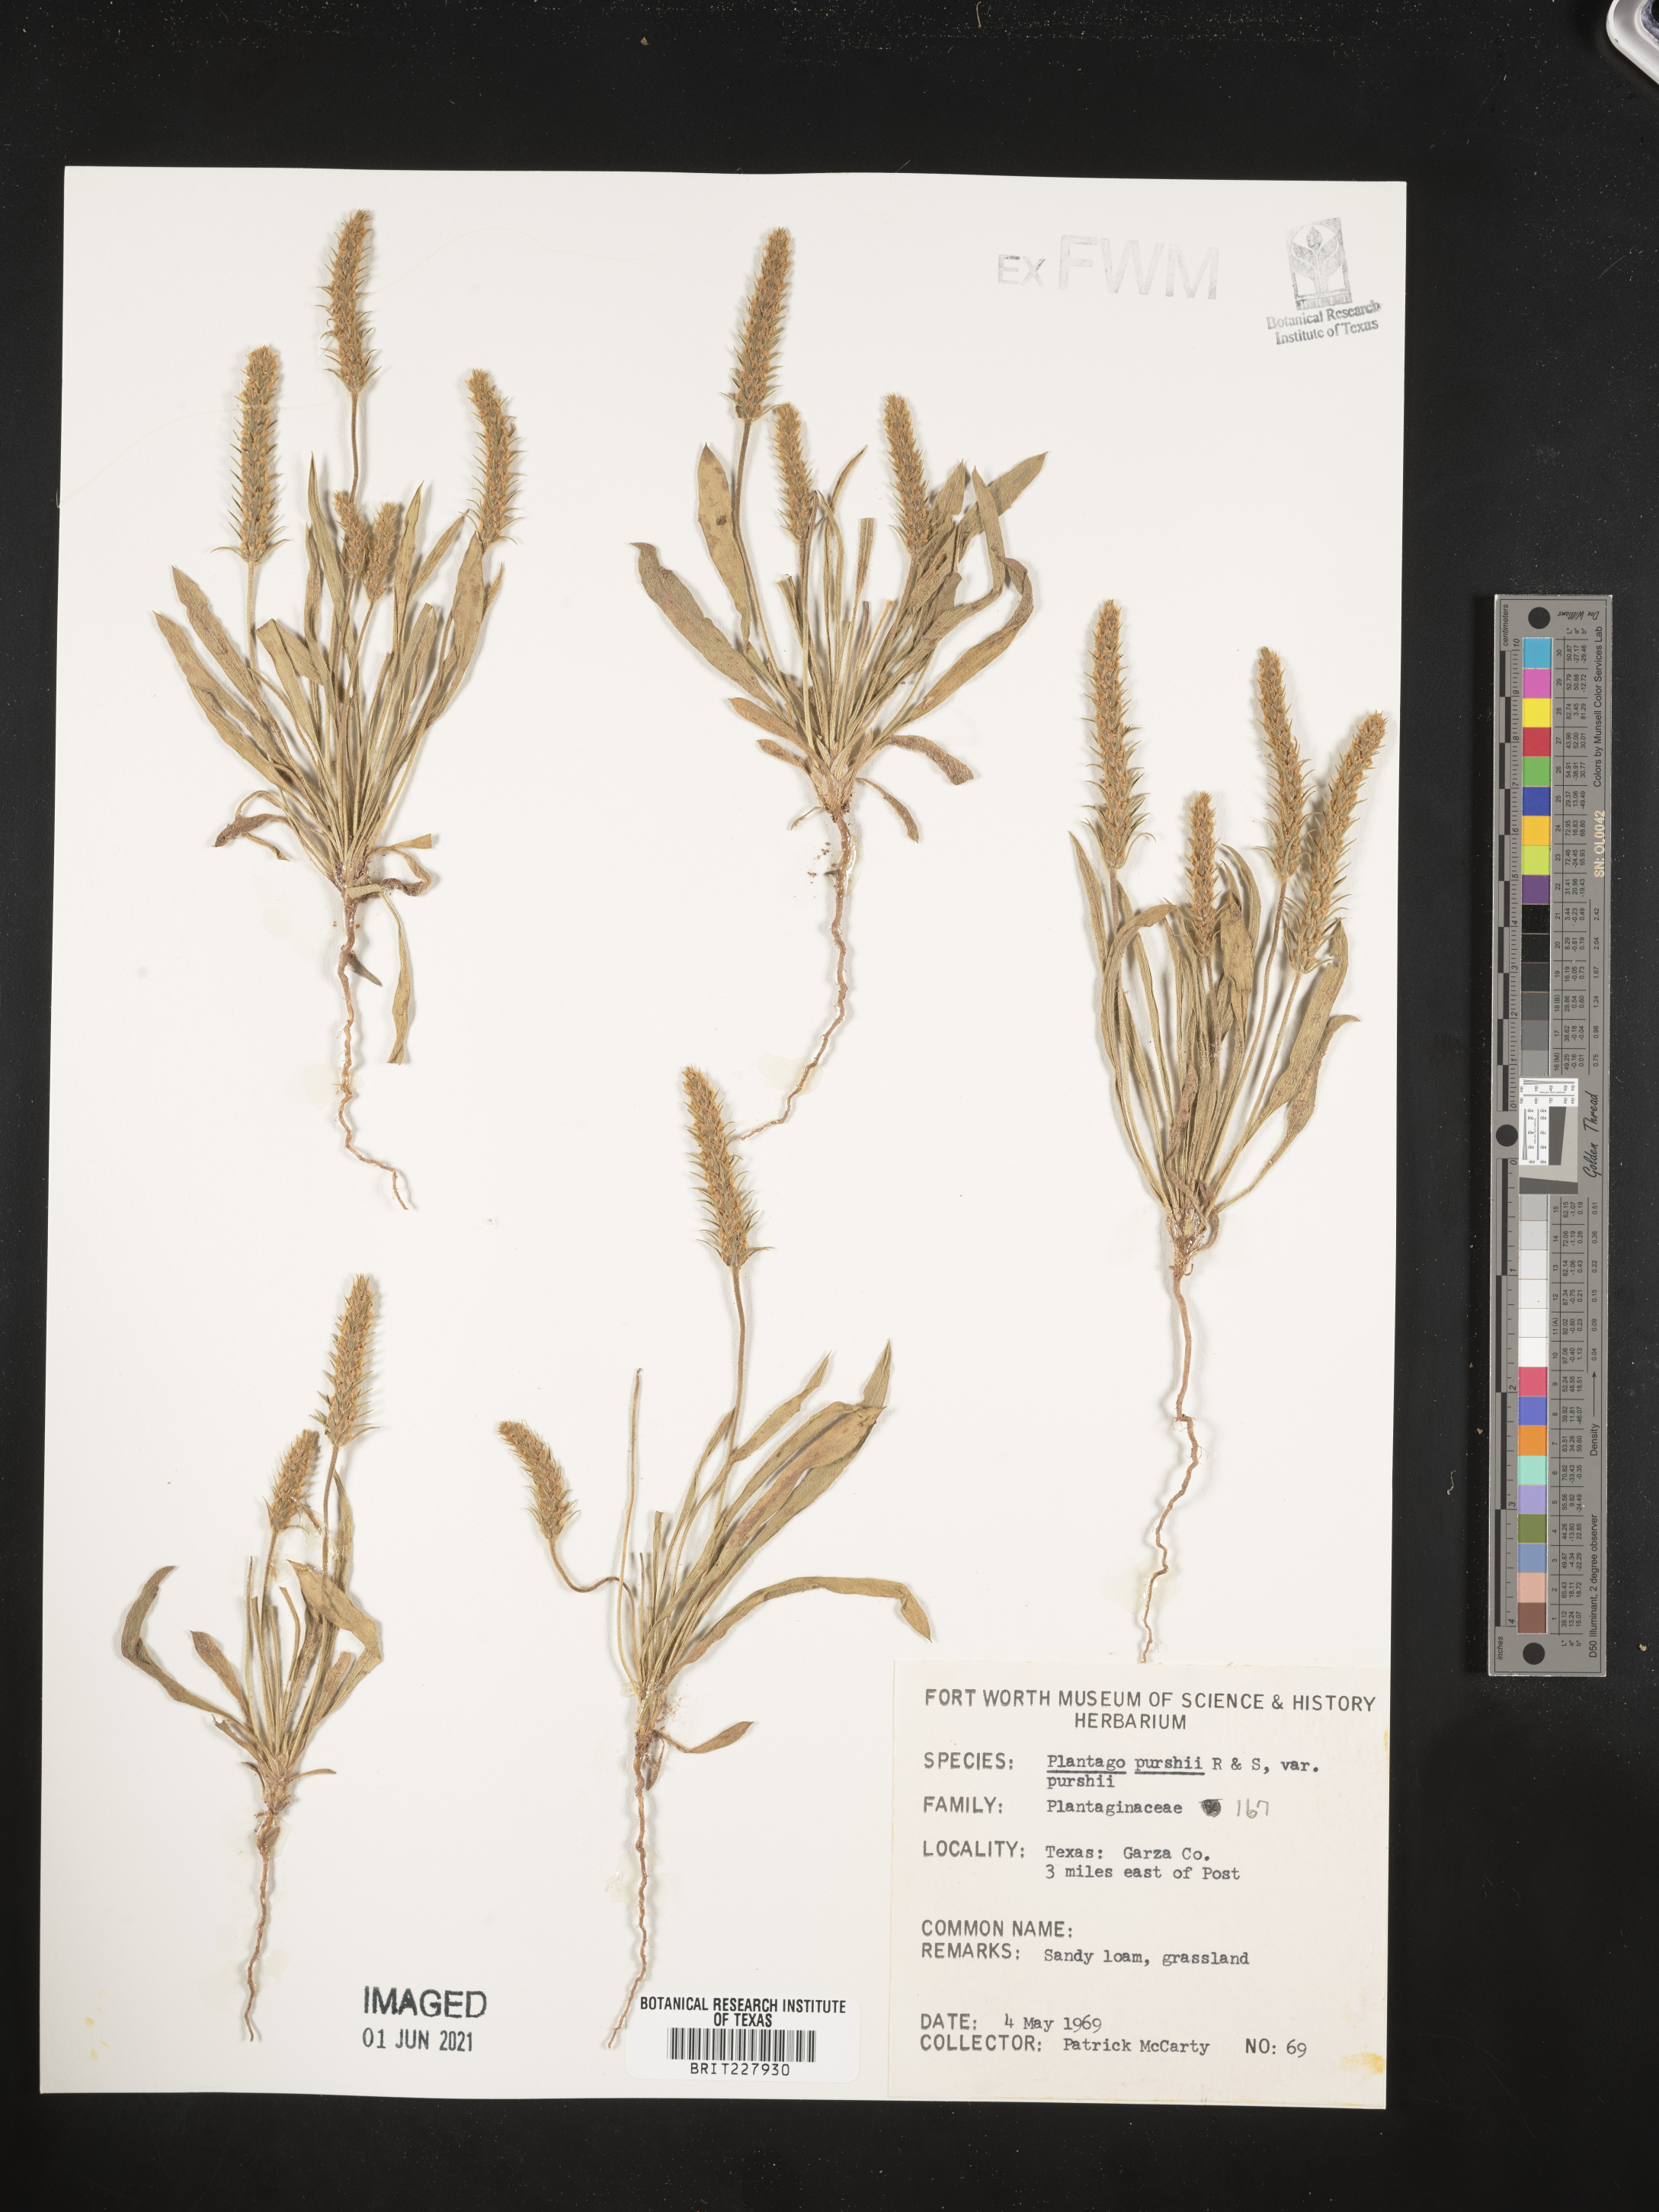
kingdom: Plantae
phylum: Tracheophyta
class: Magnoliopsida
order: Lamiales
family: Plantaginaceae
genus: Plantago
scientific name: Plantago patagonica
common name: Patagonia indian-wheat
